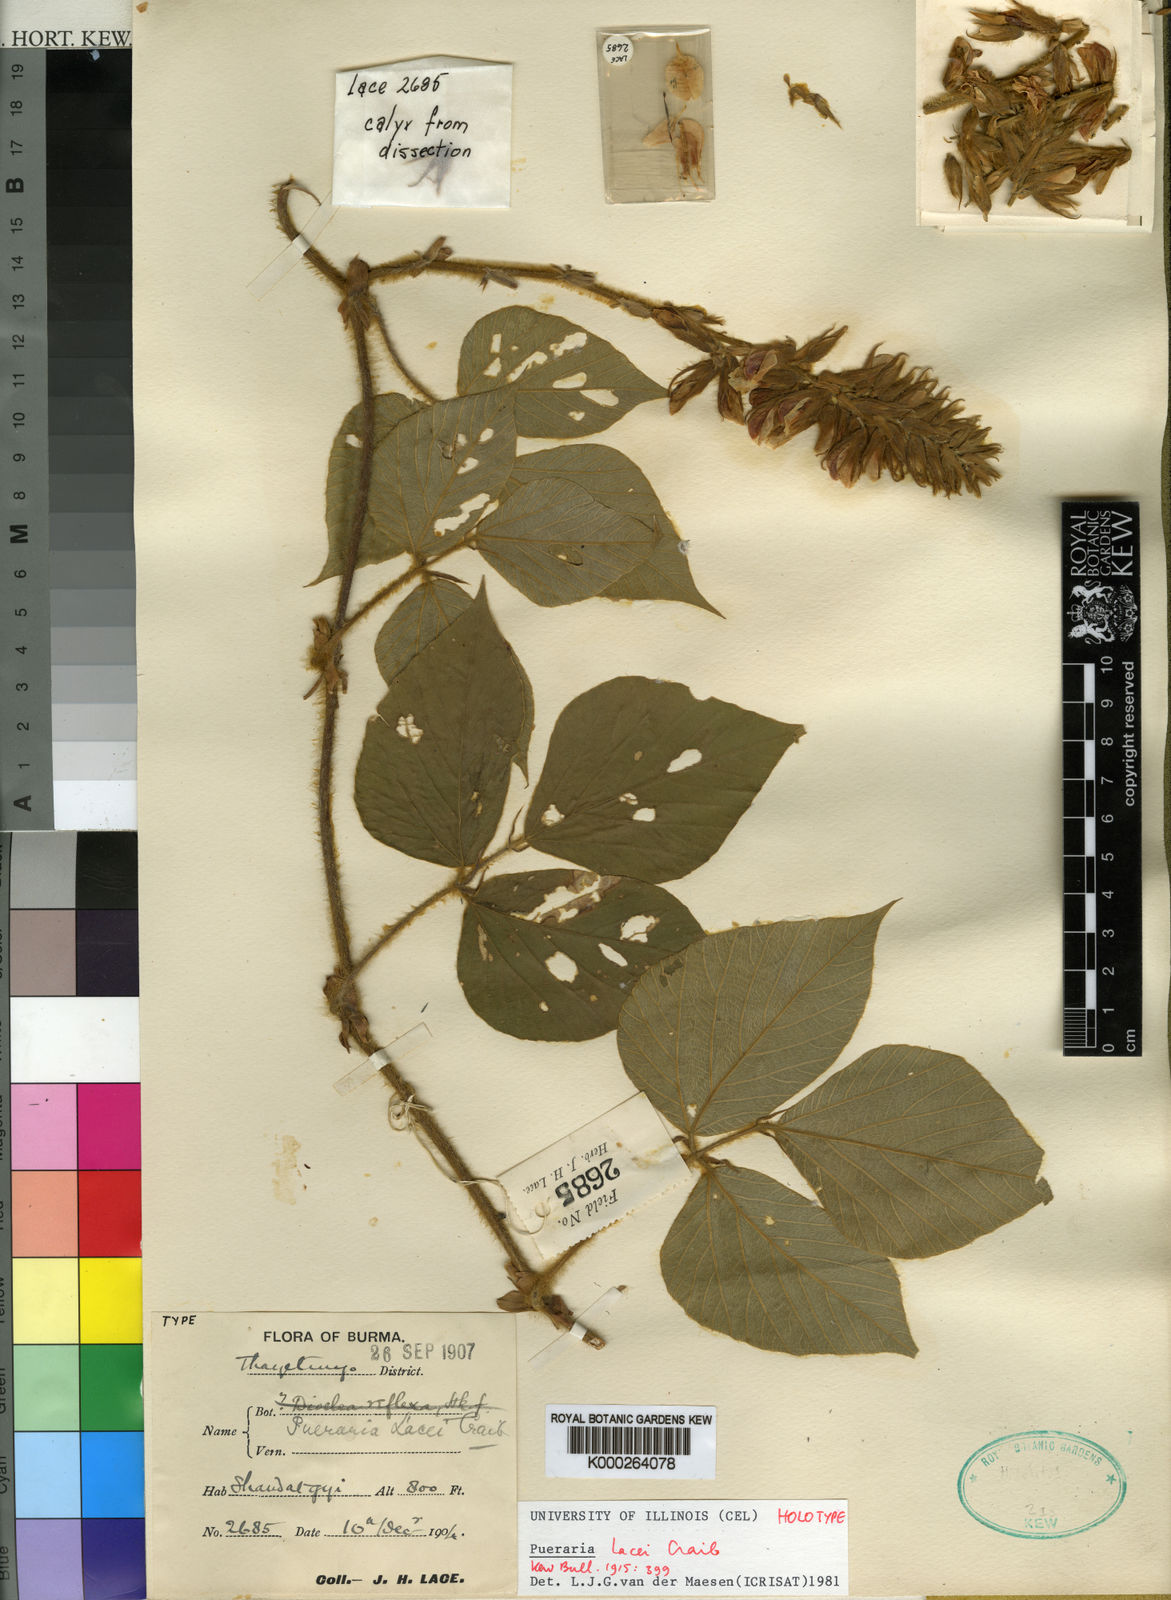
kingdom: Plantae
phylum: Tracheophyta
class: Magnoliopsida
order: Fabales
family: Fabaceae
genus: Pueraria
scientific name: Pueraria lacei
